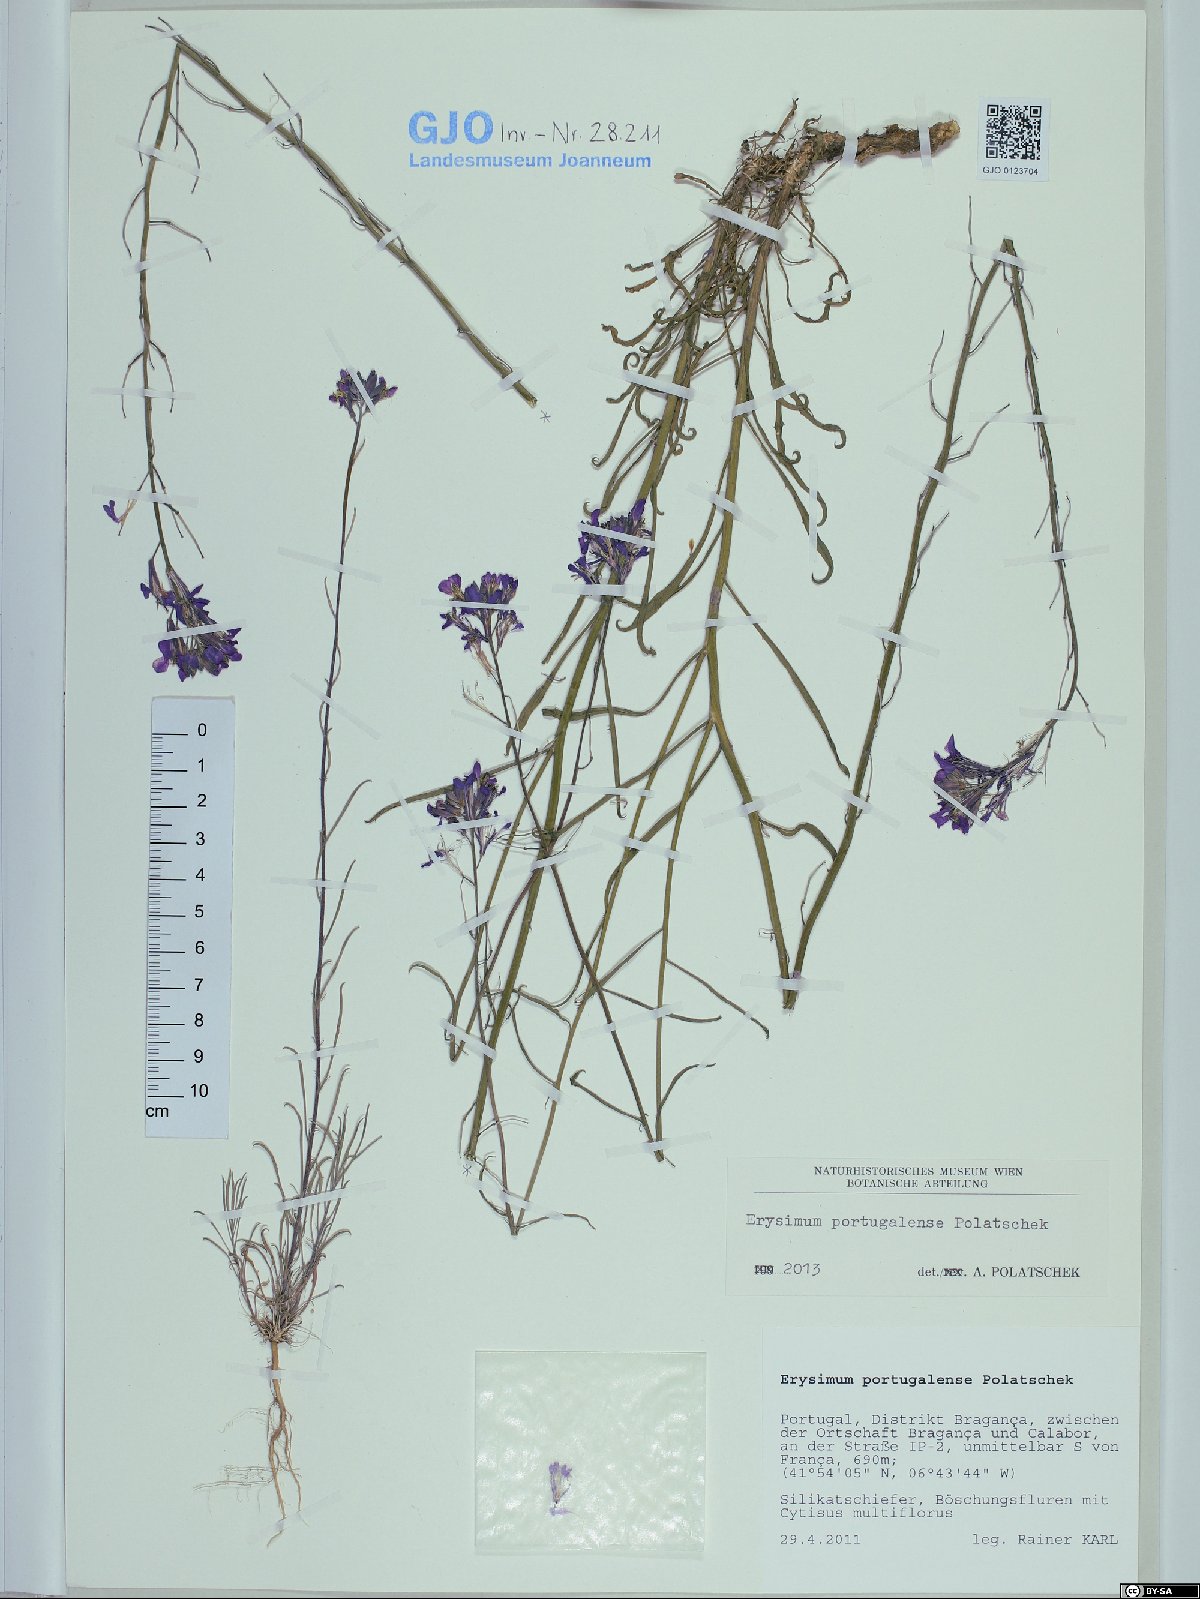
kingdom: Plantae
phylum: Tracheophyta
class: Magnoliopsida
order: Brassicales
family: Brassicaceae
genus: Erysimum
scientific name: Erysimum portugalense
